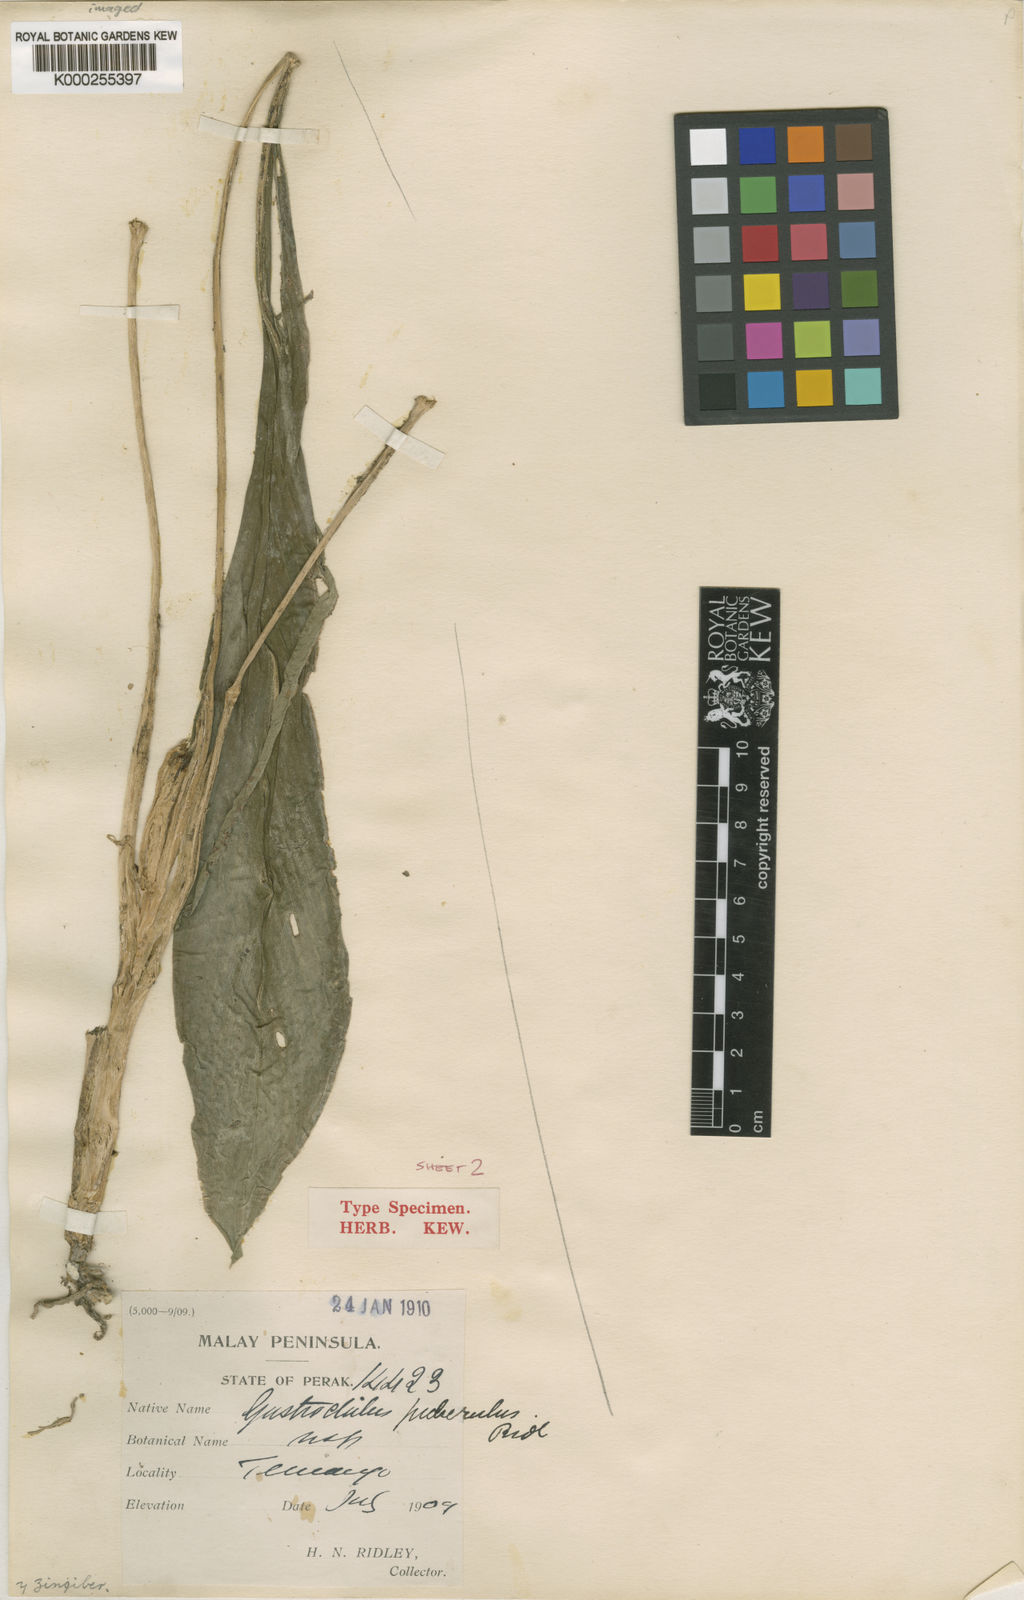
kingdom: Plantae
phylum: Tracheophyta
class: Liliopsida
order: Zingiberales
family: Zingiberaceae
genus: Boesenbergia
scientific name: Boesenbergia clivalis
